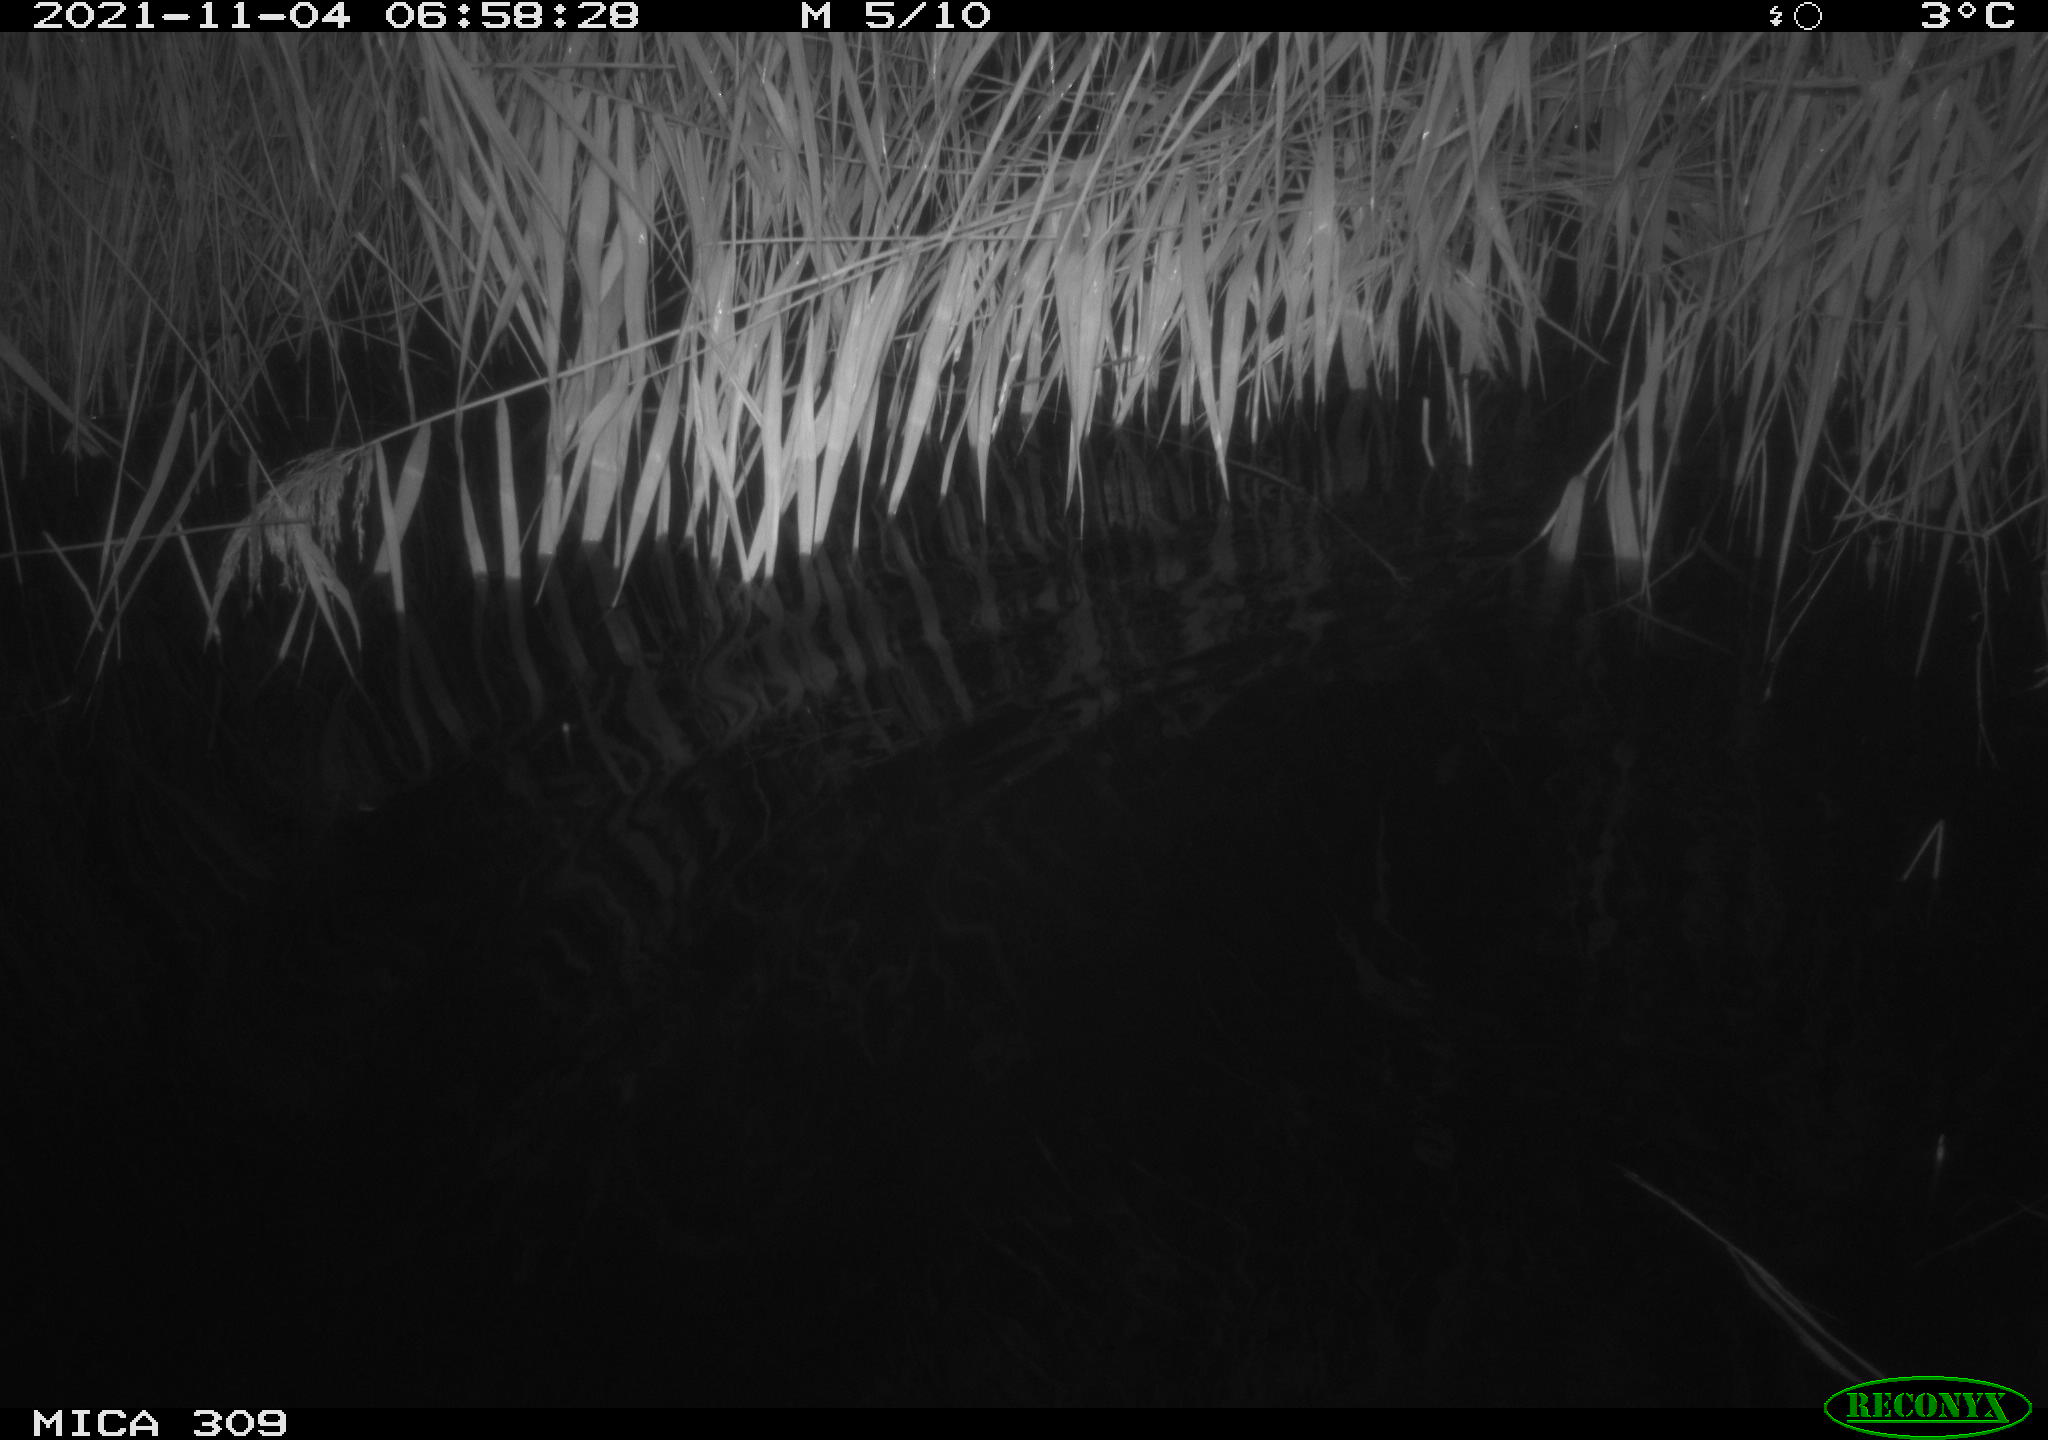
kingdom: Animalia
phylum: Chordata
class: Mammalia
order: Rodentia
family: Cricetidae
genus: Ondatra
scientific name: Ondatra zibethicus
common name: Muskrat
